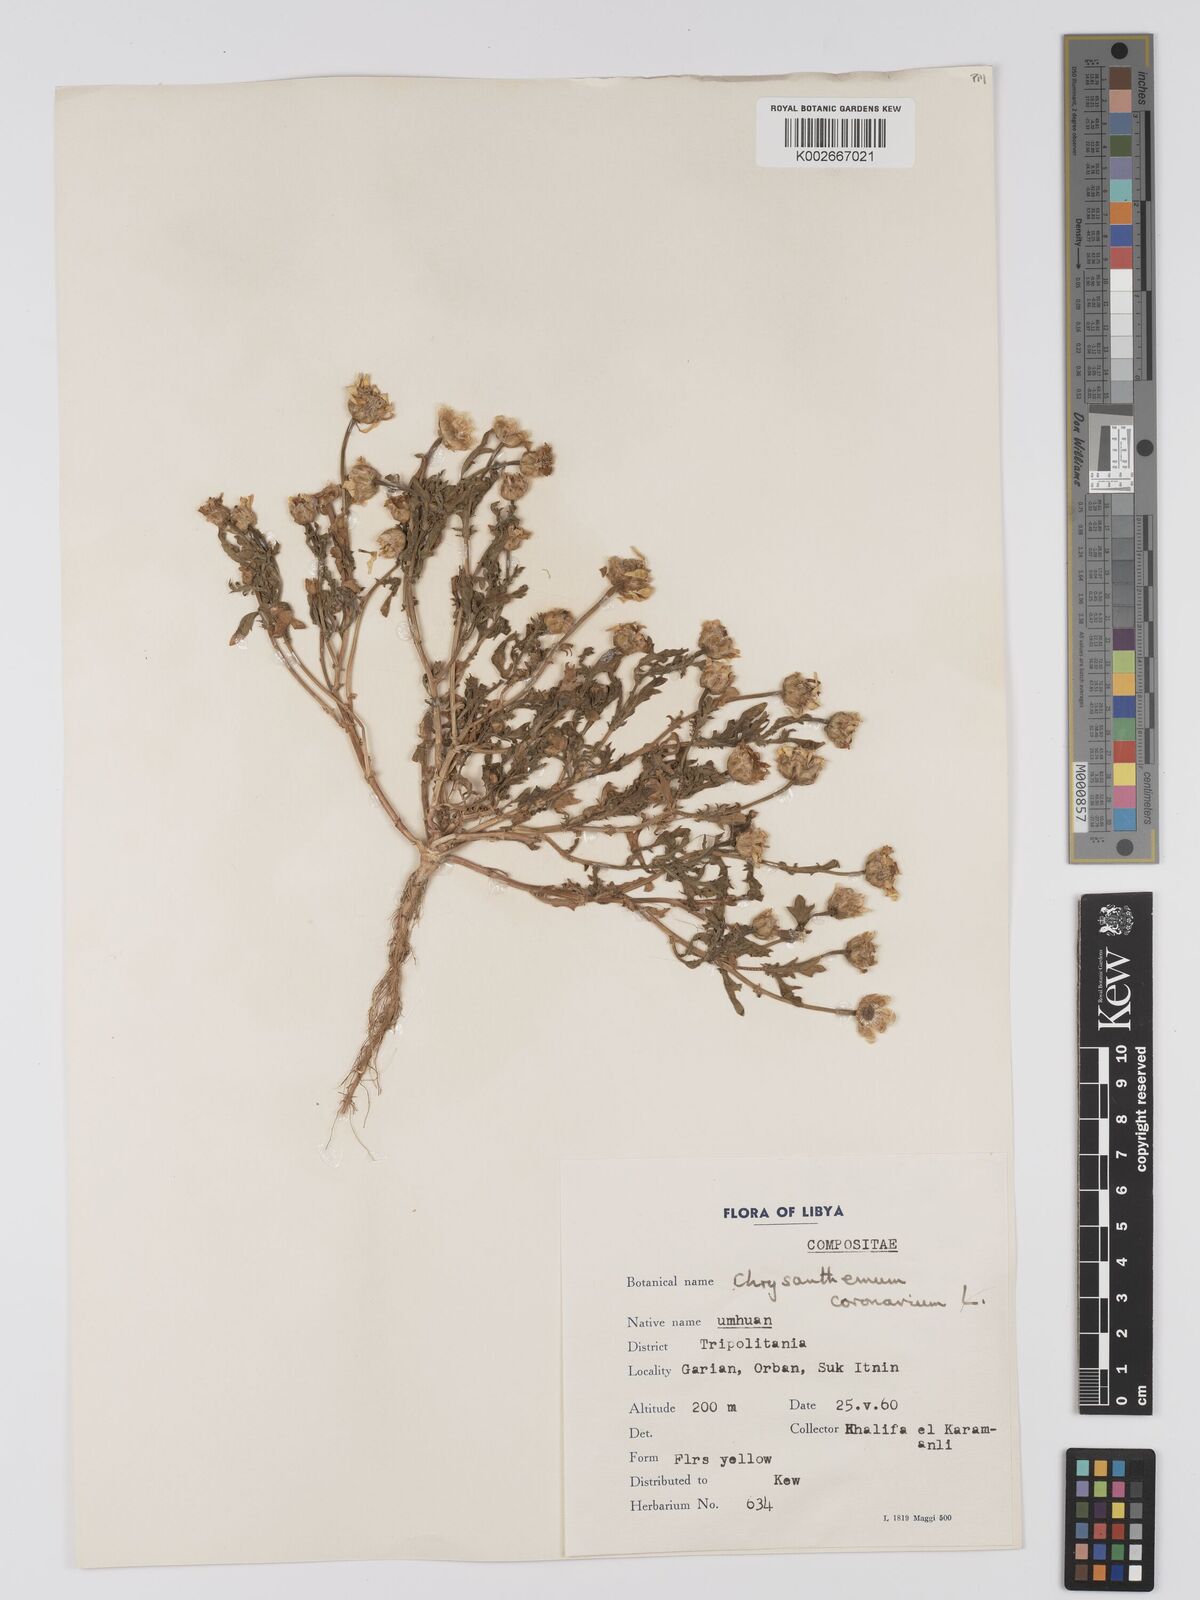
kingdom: Plantae
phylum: Tracheophyta
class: Magnoliopsida
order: Asterales
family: Asteraceae
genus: Glebionis
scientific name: Glebionis coronaria
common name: Crowndaisy
